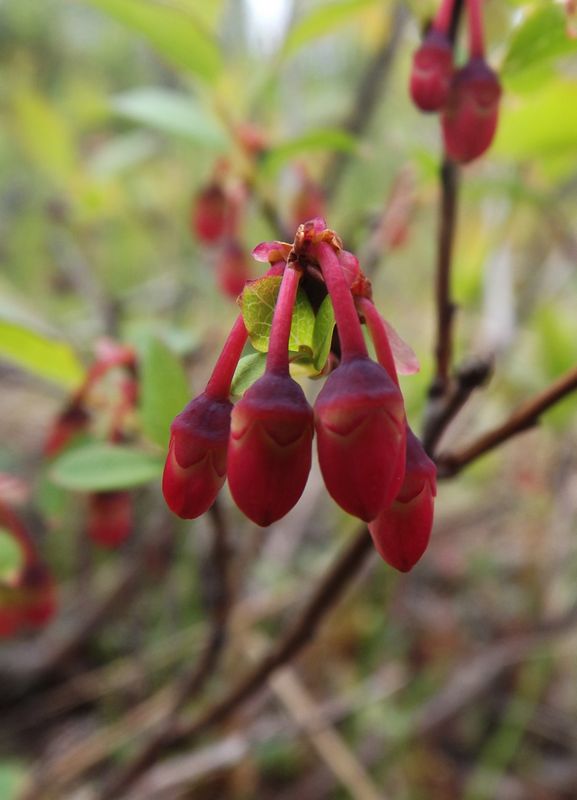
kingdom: Plantae
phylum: Tracheophyta
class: Magnoliopsida
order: Ericales
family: Ericaceae
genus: Vaccinium
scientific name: Vaccinium uliginosum
